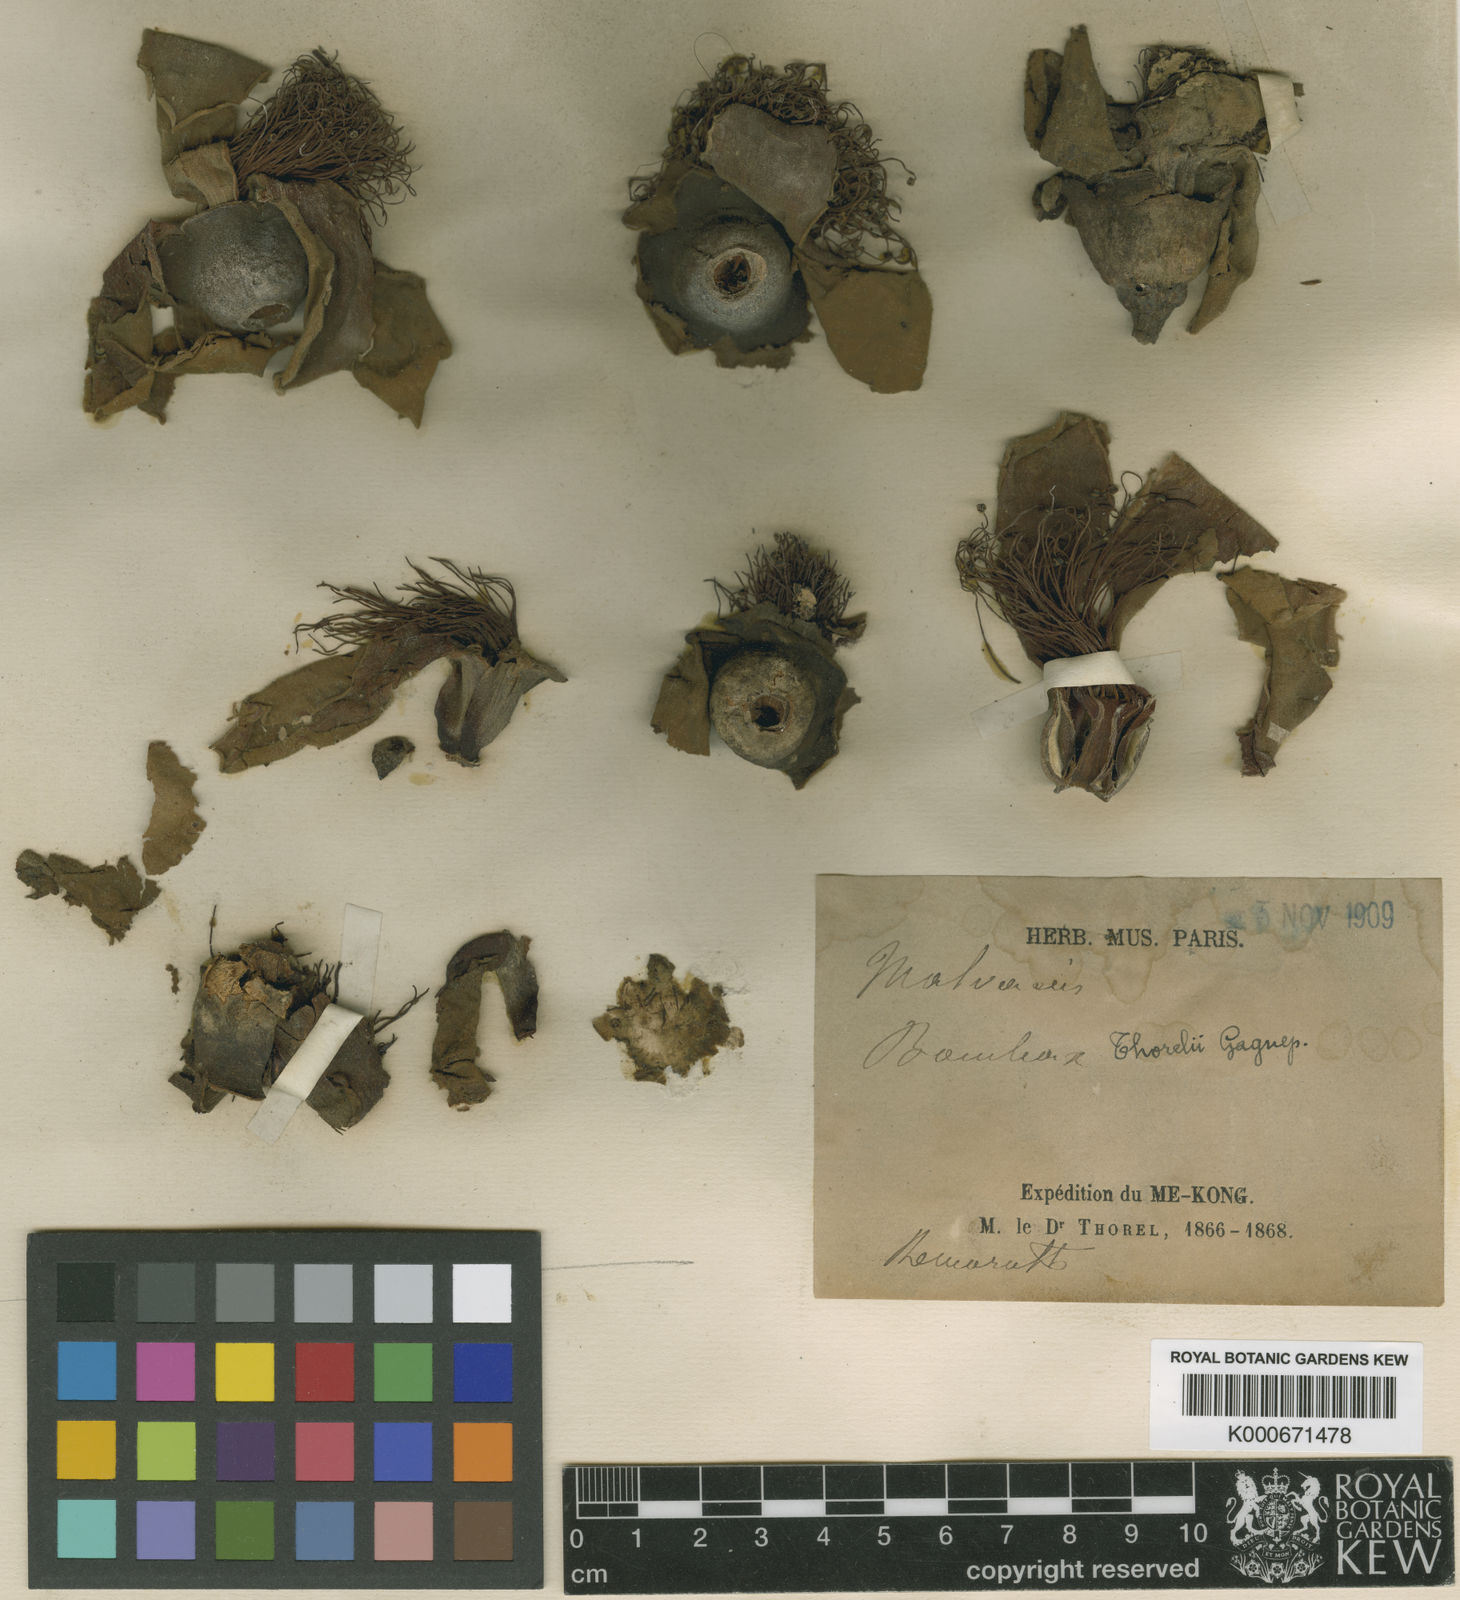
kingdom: Plantae
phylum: Tracheophyta
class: Magnoliopsida
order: Malvales
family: Malvaceae
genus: Bombax
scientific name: Bombax ceiba
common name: Northern-cottonwood
